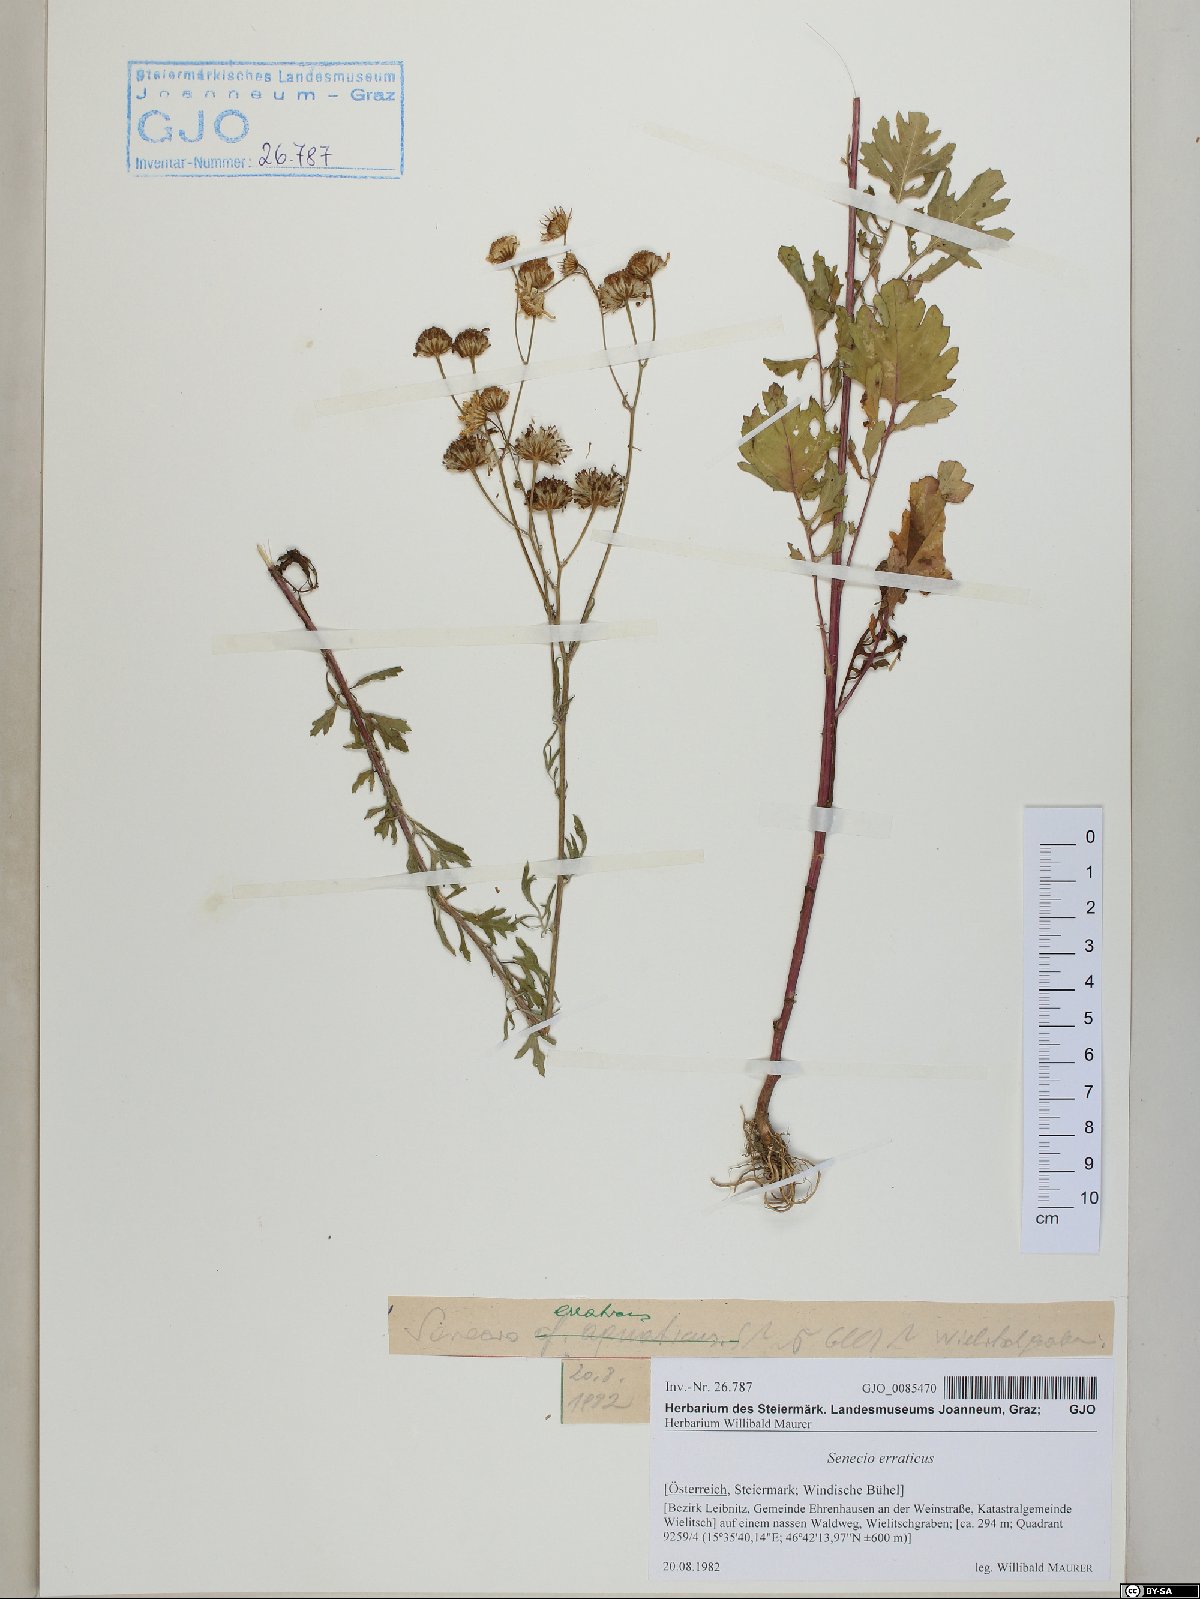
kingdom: Plantae
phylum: Tracheophyta
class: Magnoliopsida
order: Asterales
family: Asteraceae
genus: Jacobaea
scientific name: Jacobaea erratica
